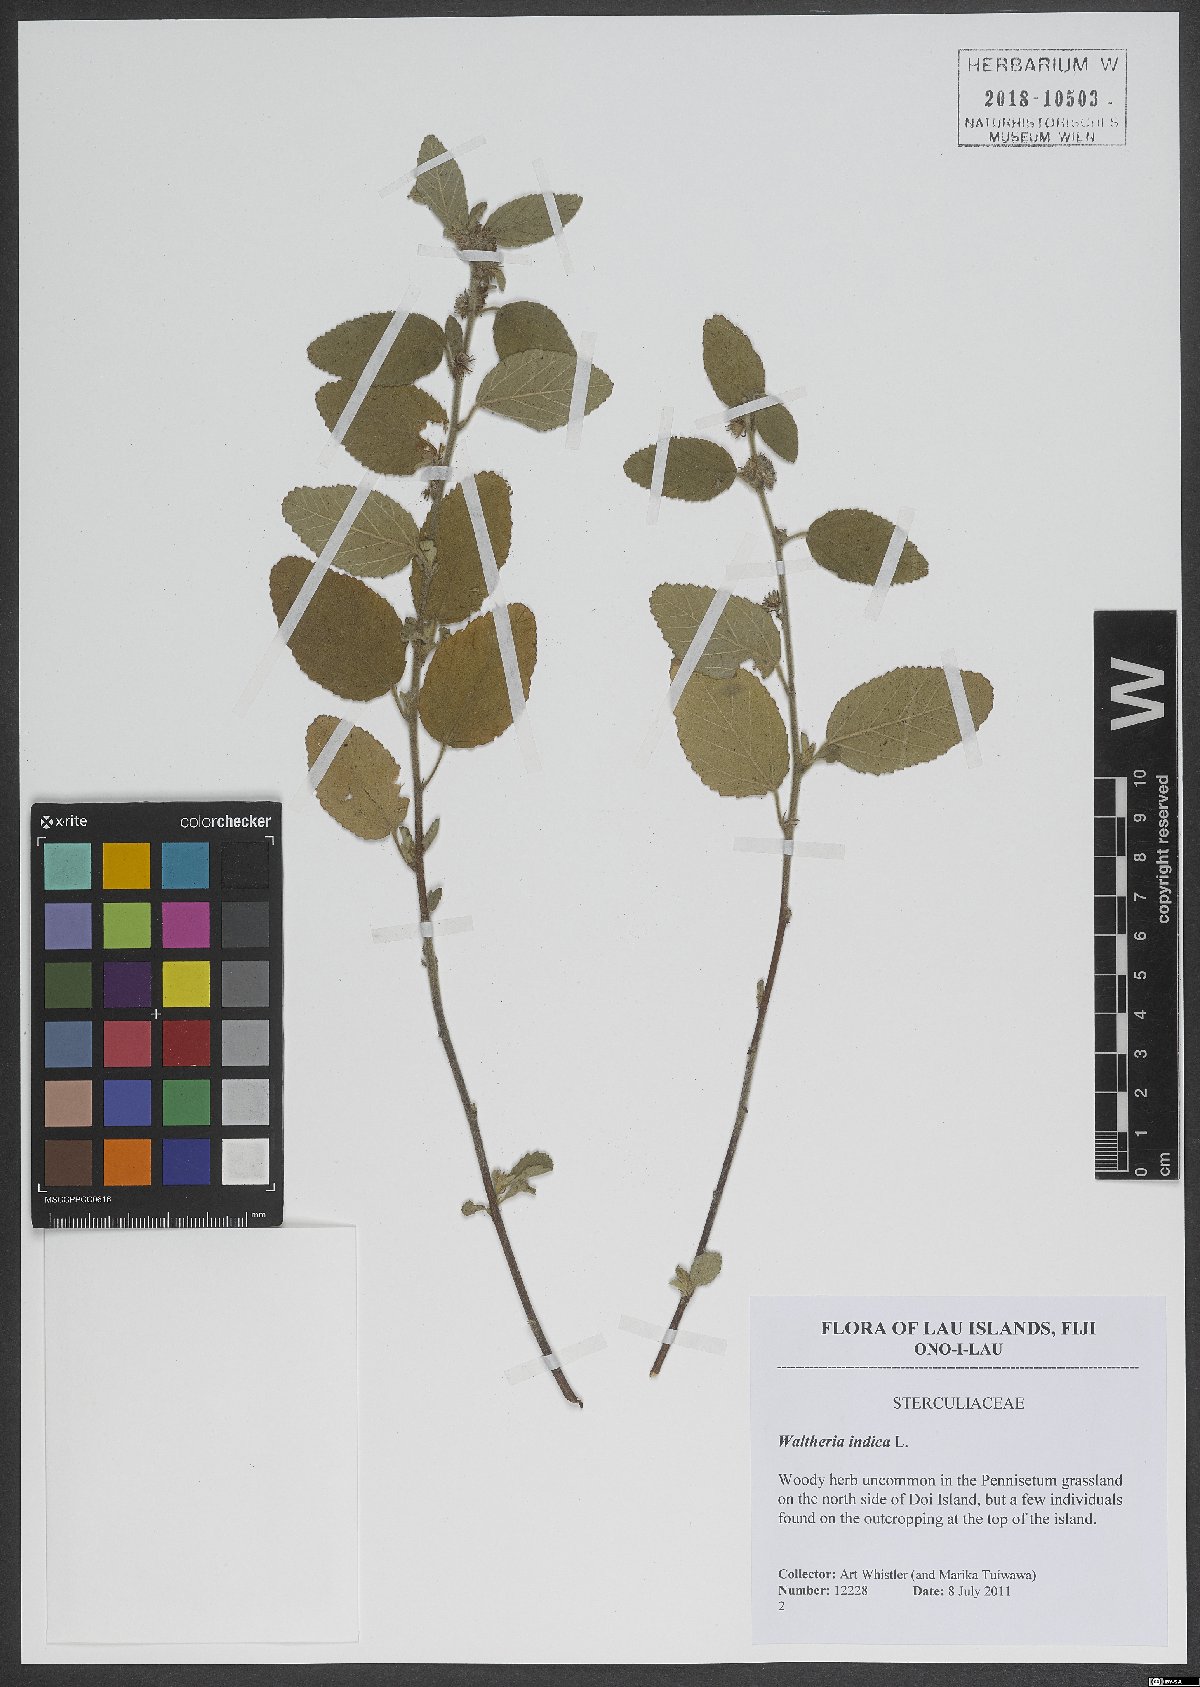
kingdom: Plantae
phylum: Tracheophyta
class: Magnoliopsida
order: Malvales
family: Malvaceae
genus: Waltheria
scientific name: Waltheria indica
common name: Leather-coat
